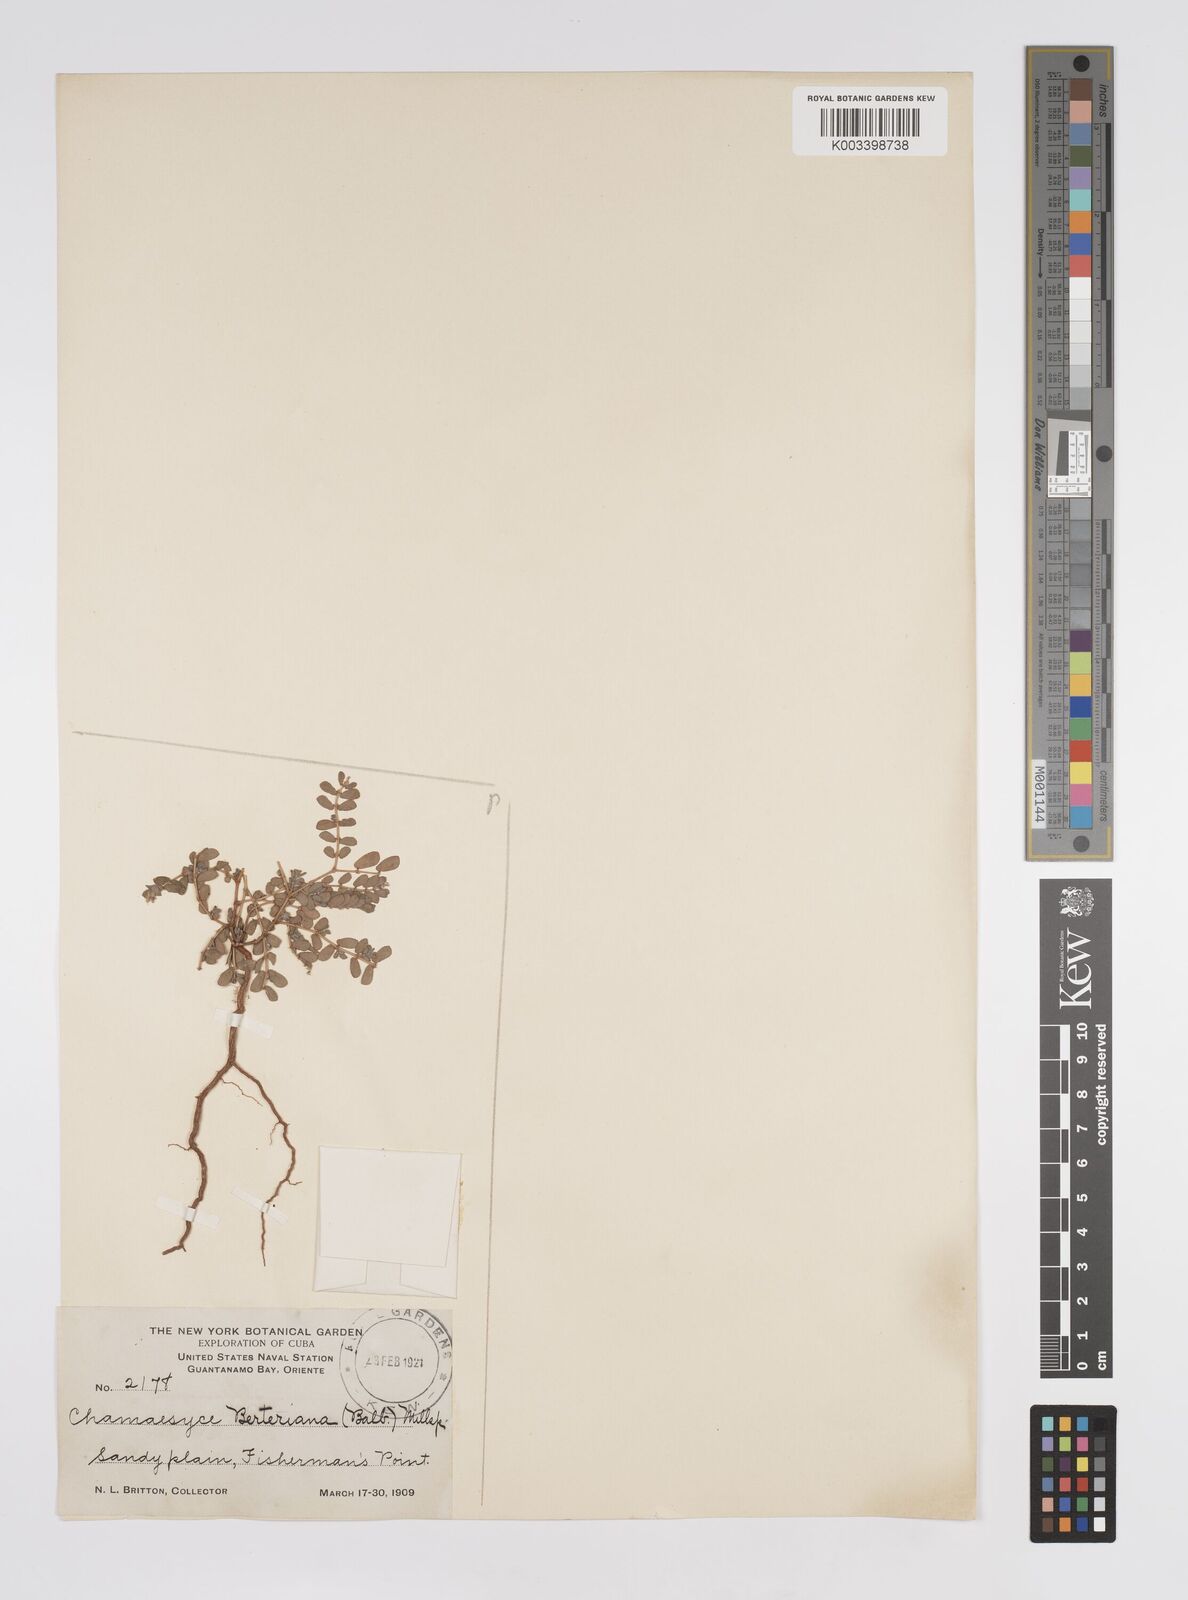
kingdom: Plantae
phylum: Tracheophyta
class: Magnoliopsida
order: Malpighiales
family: Euphorbiaceae
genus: Euphorbia
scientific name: Euphorbia berteroana
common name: Bertero's sandmat
